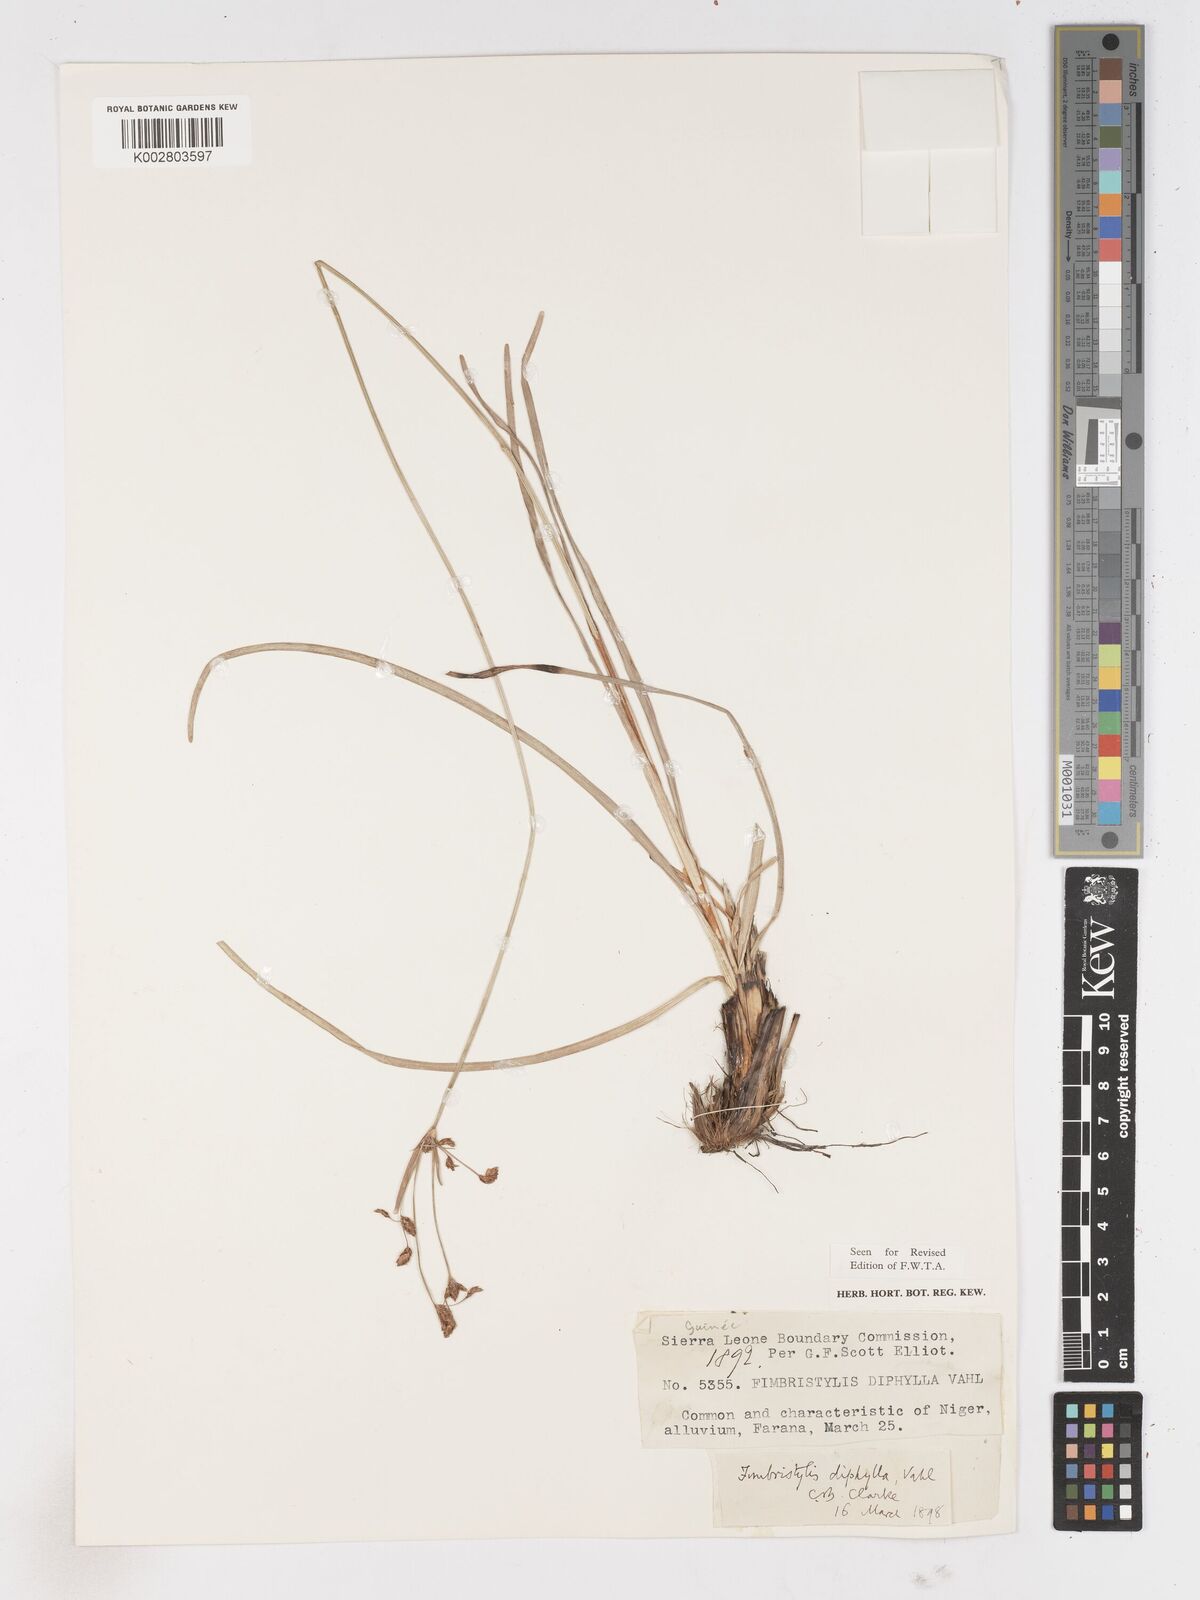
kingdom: Plantae
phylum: Tracheophyta
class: Liliopsida
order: Poales
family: Cyperaceae
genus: Fimbristylis
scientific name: Fimbristylis dichotoma
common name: Forked fimbry
